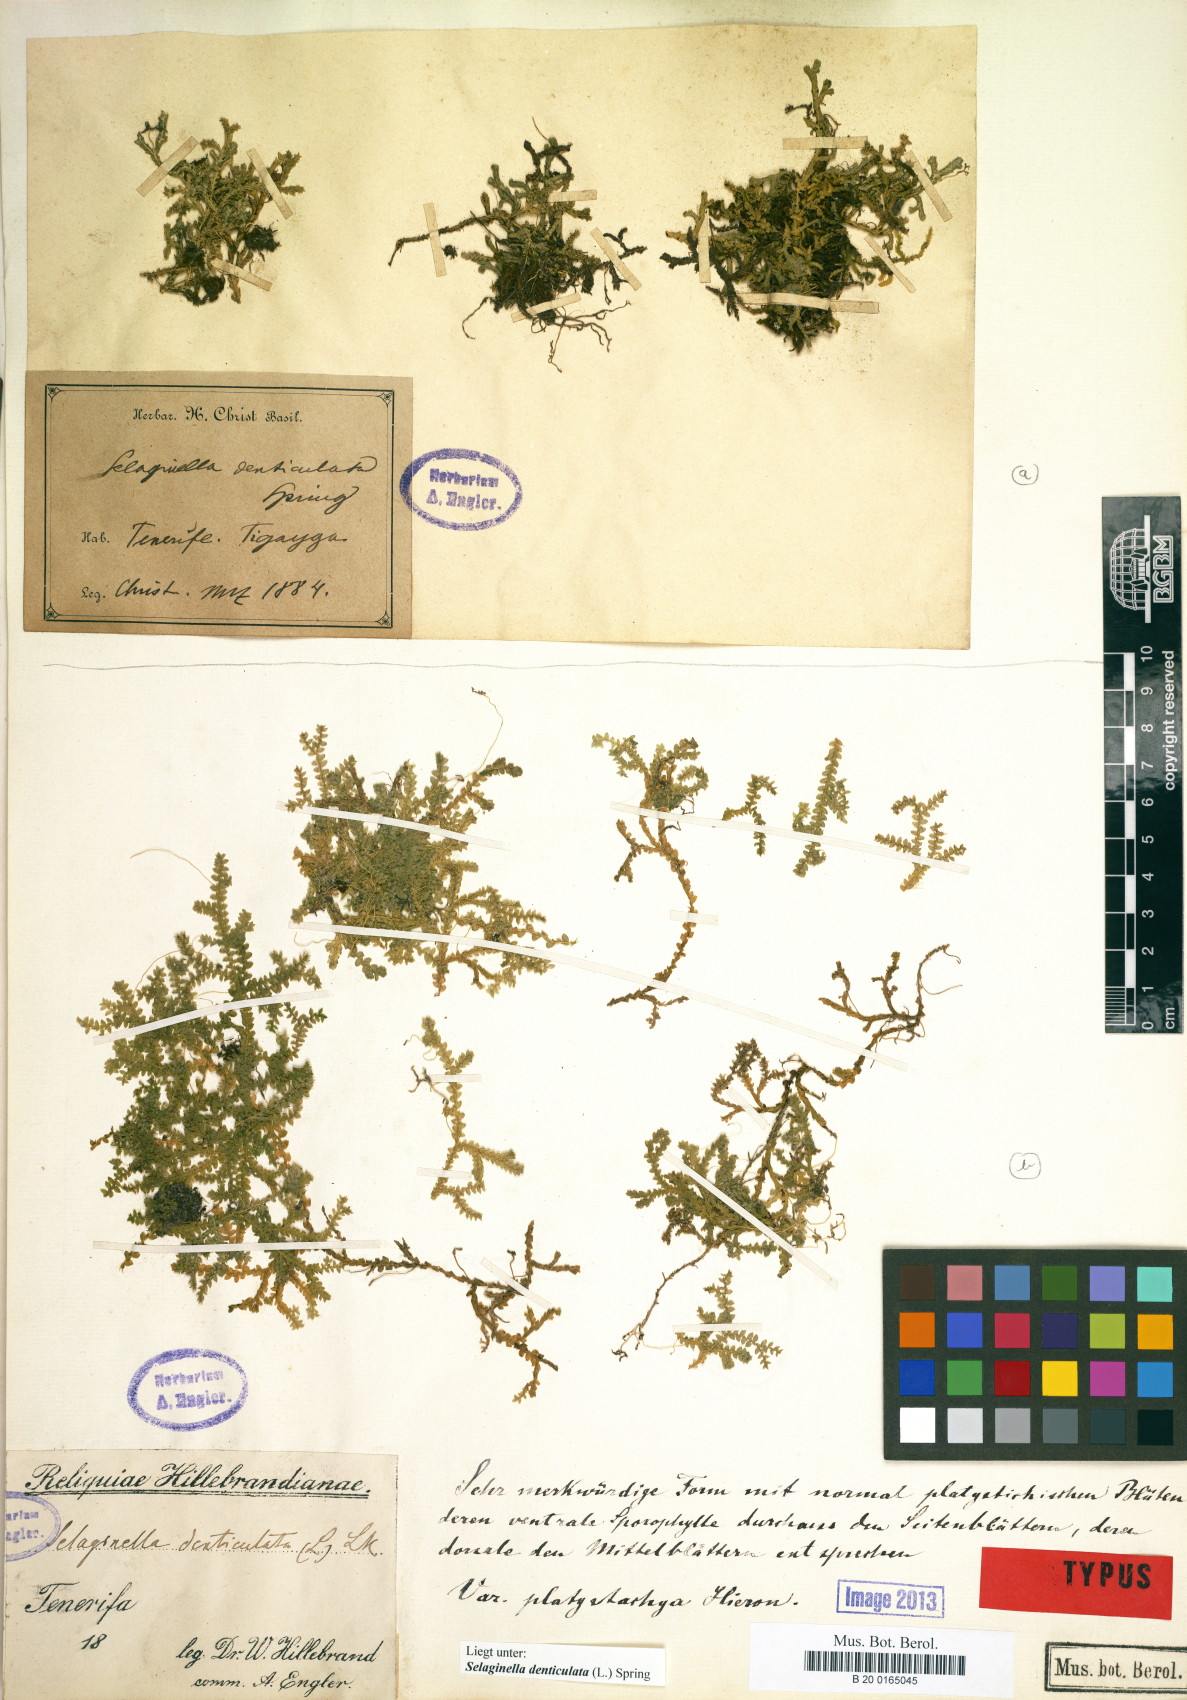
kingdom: Plantae
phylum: Tracheophyta
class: Lycopodiopsida
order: Selaginellales
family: Selaginellaceae
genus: Selaginella
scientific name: Selaginella denticulata
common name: Toothed-leaved clubmoss
